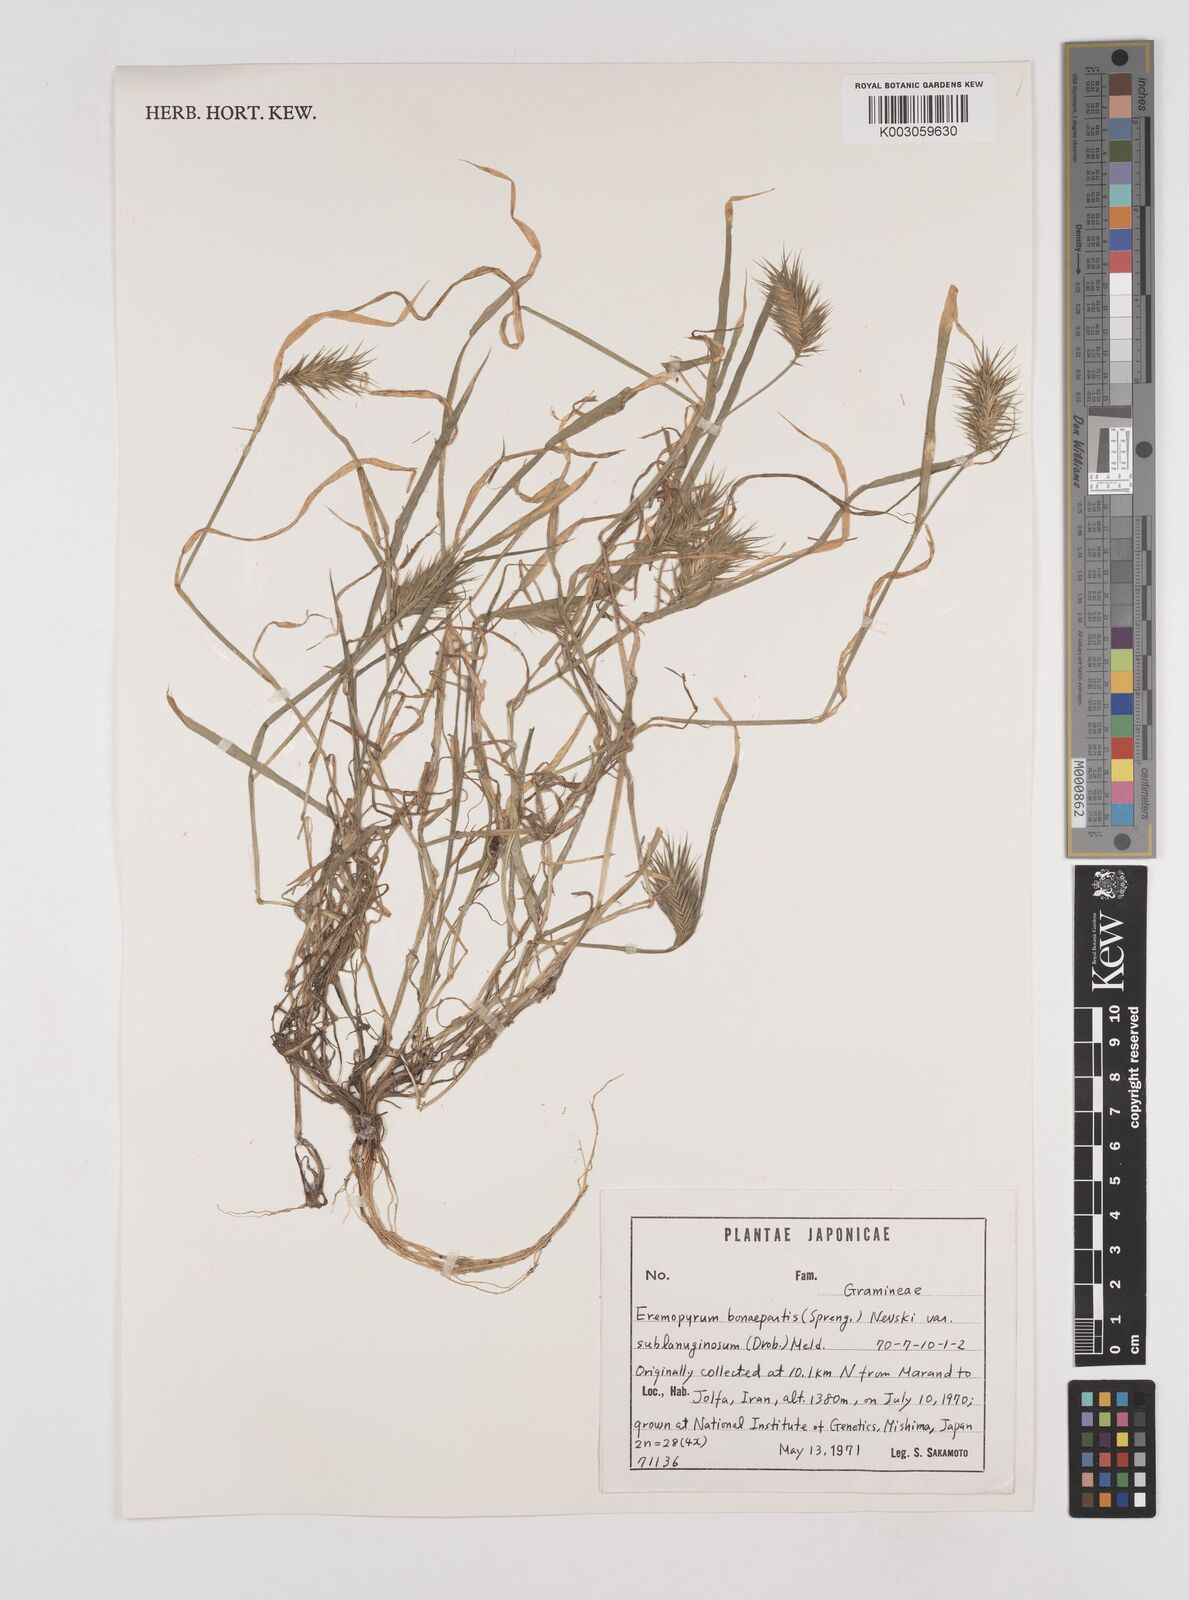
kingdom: Plantae
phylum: Tracheophyta
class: Liliopsida
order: Poales
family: Poaceae
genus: Eremopyrum
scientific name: Eremopyrum bonaepartis
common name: Tapertip false wheatgrass
